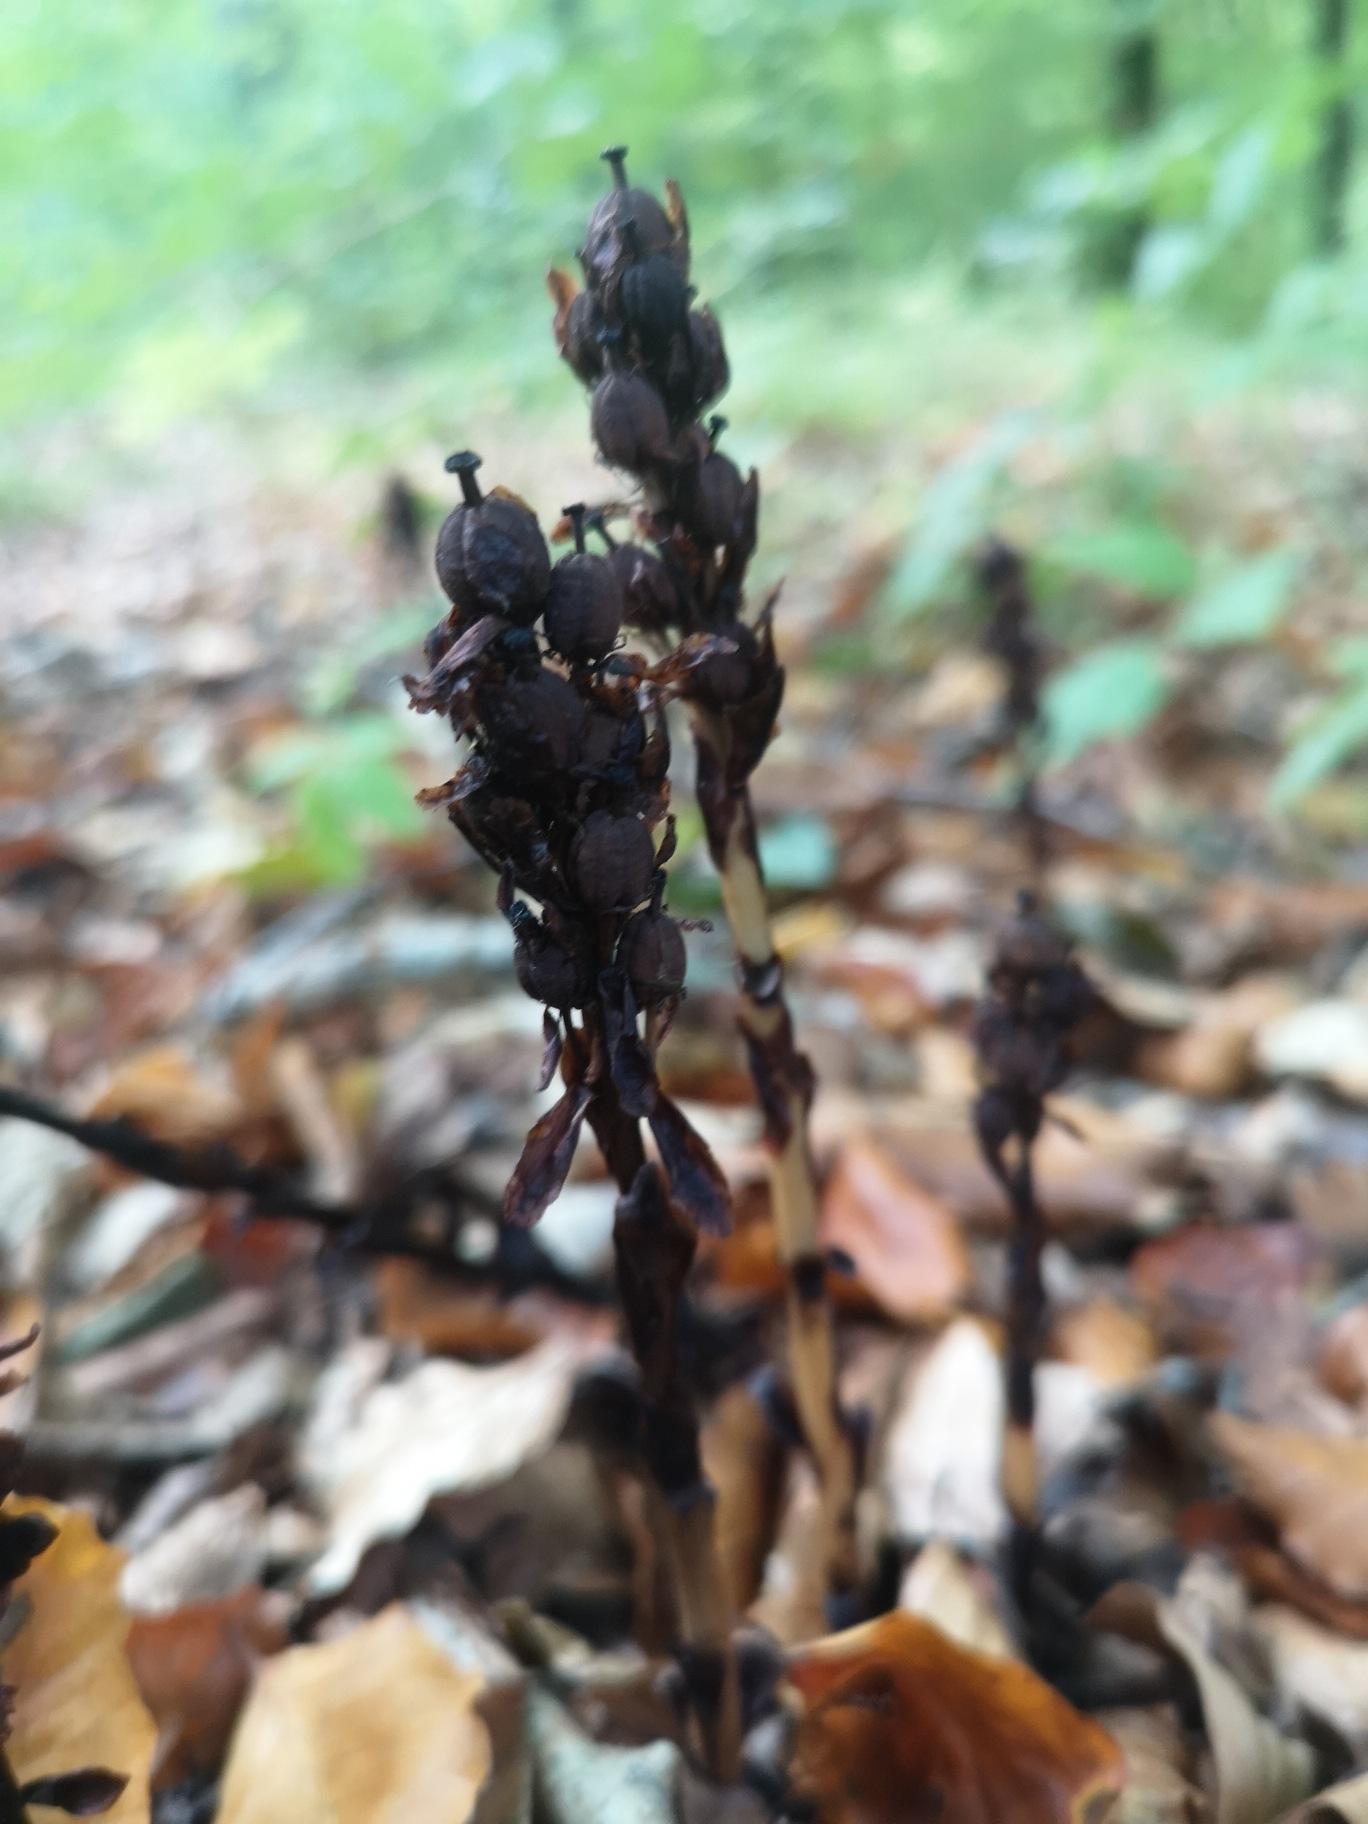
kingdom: Plantae
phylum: Tracheophyta
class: Magnoliopsida
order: Ericales
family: Ericaceae
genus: Hypopitys
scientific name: Hypopitys monotropa
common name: Snylterod
